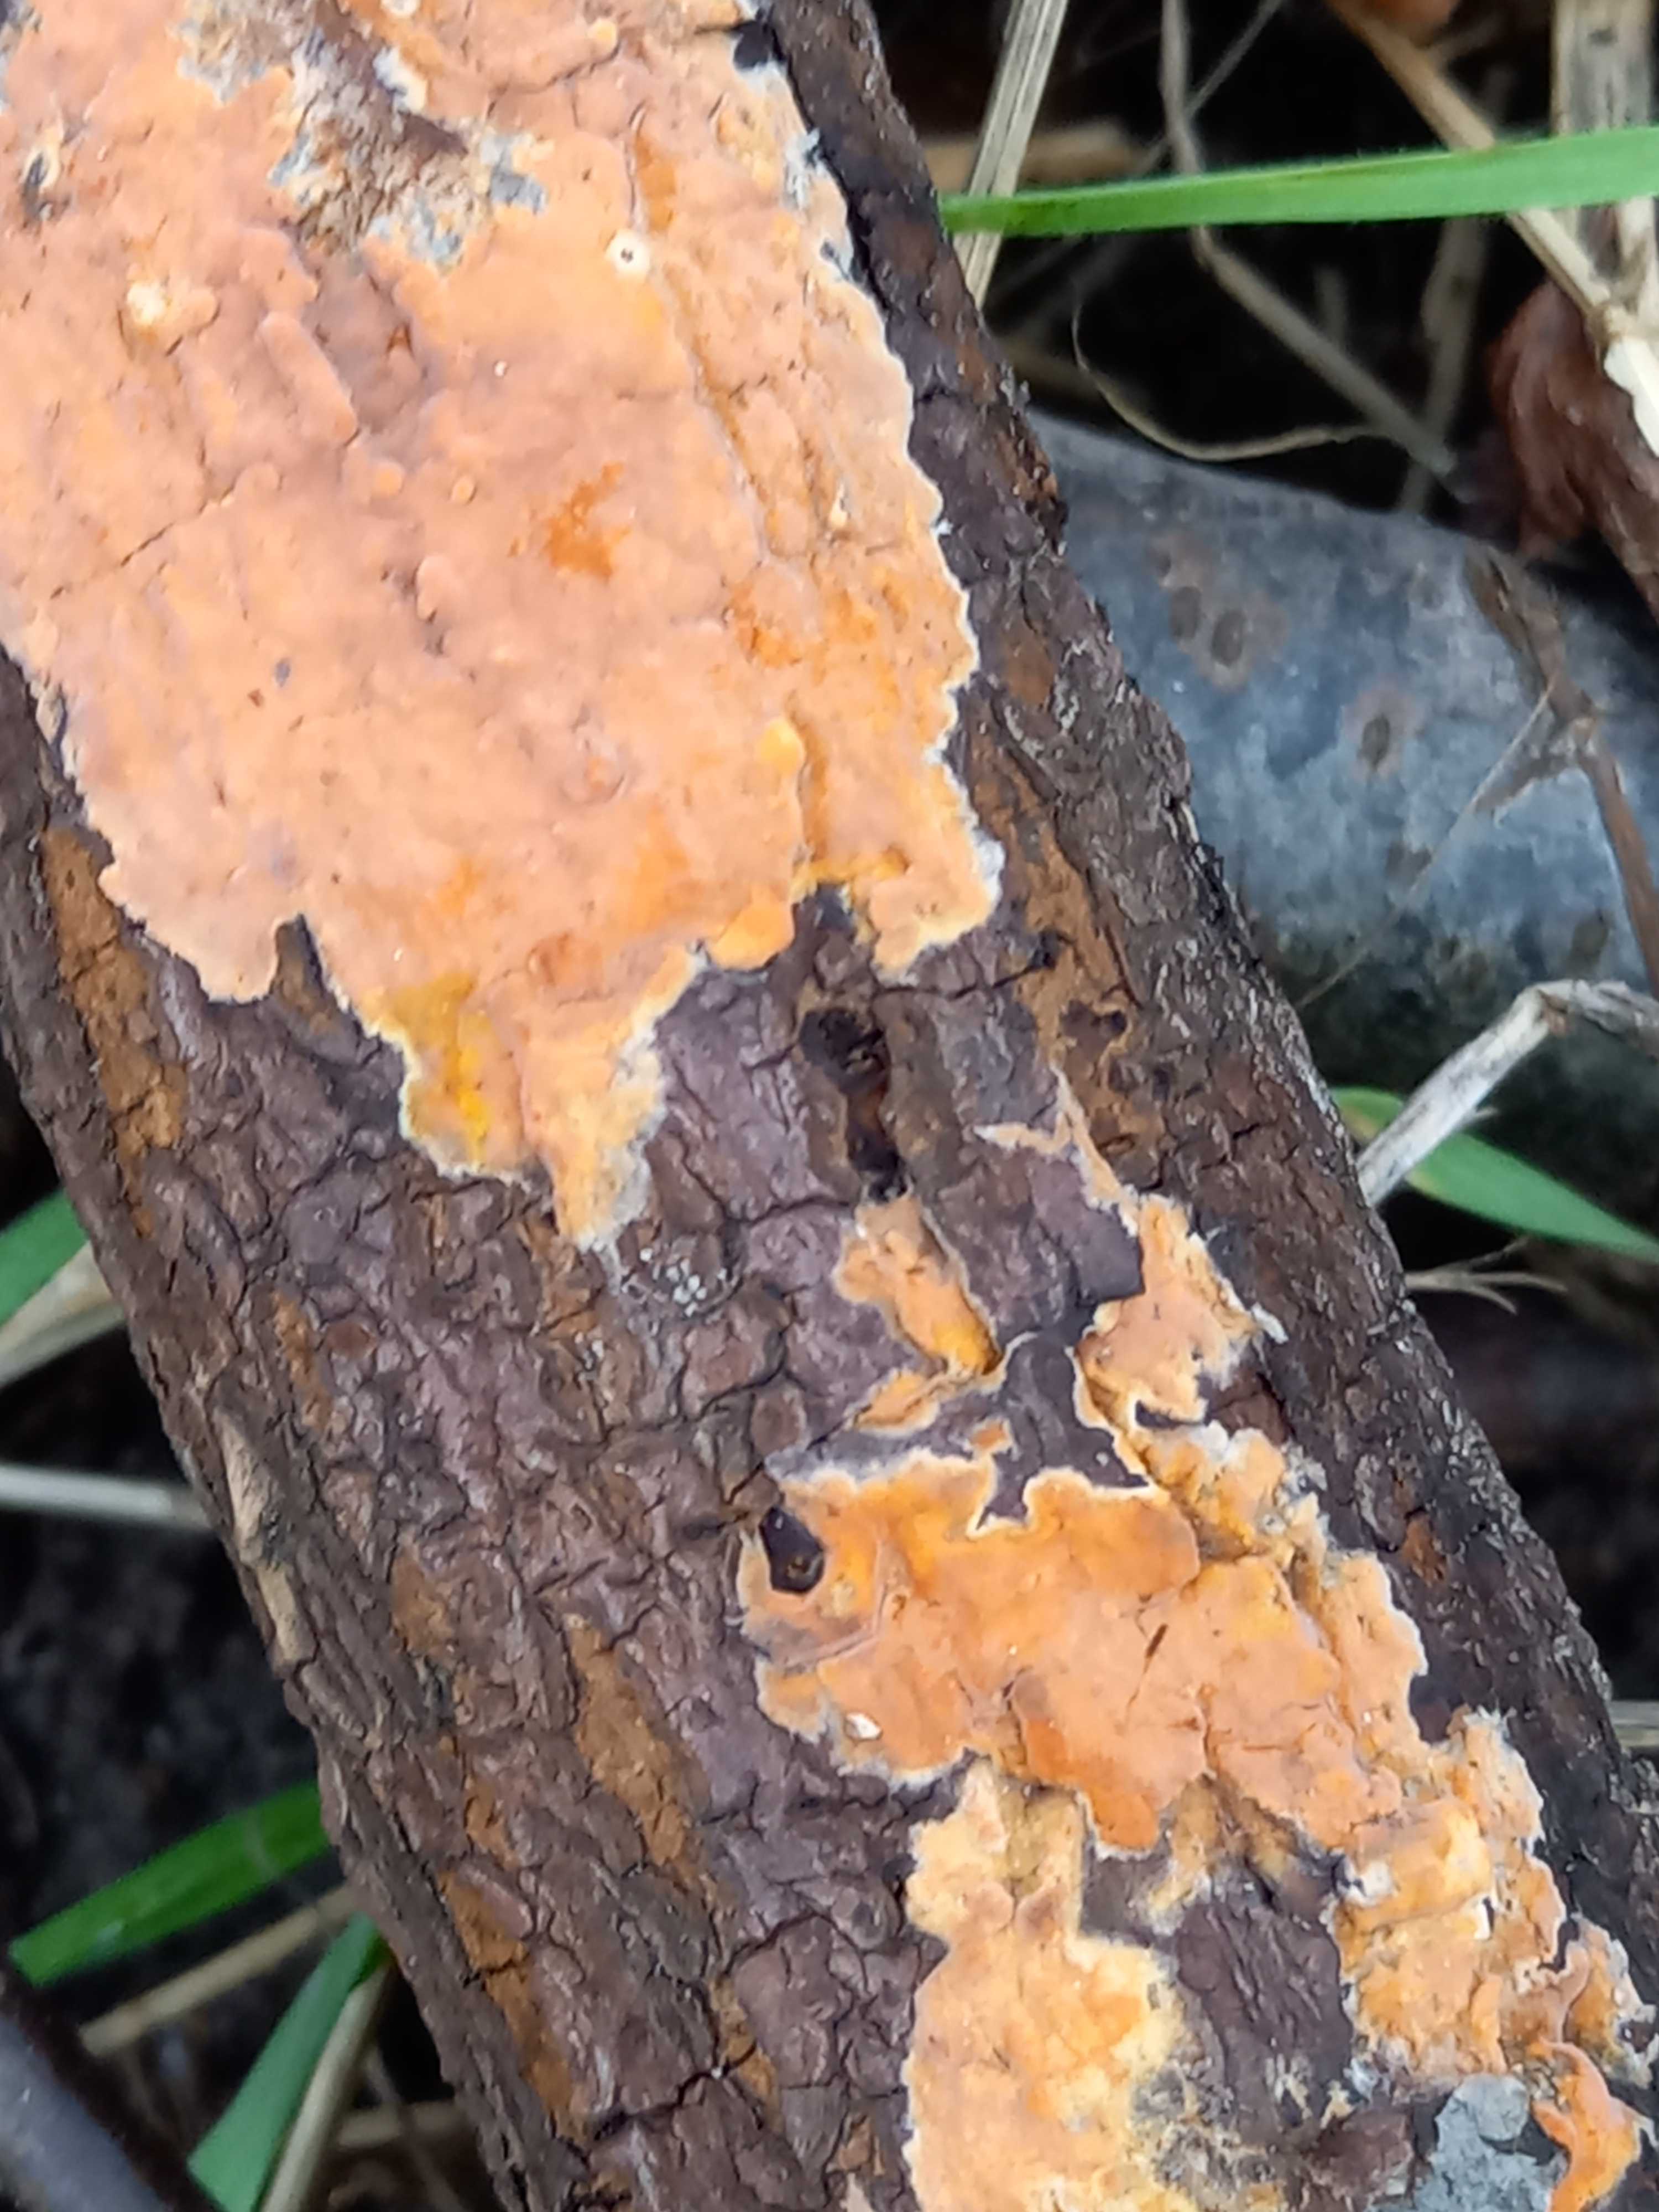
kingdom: Fungi
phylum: Basidiomycota
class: Agaricomycetes
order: Russulales
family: Peniophoraceae
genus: Peniophora
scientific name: Peniophora incarnata
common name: laksefarvet voksskind
